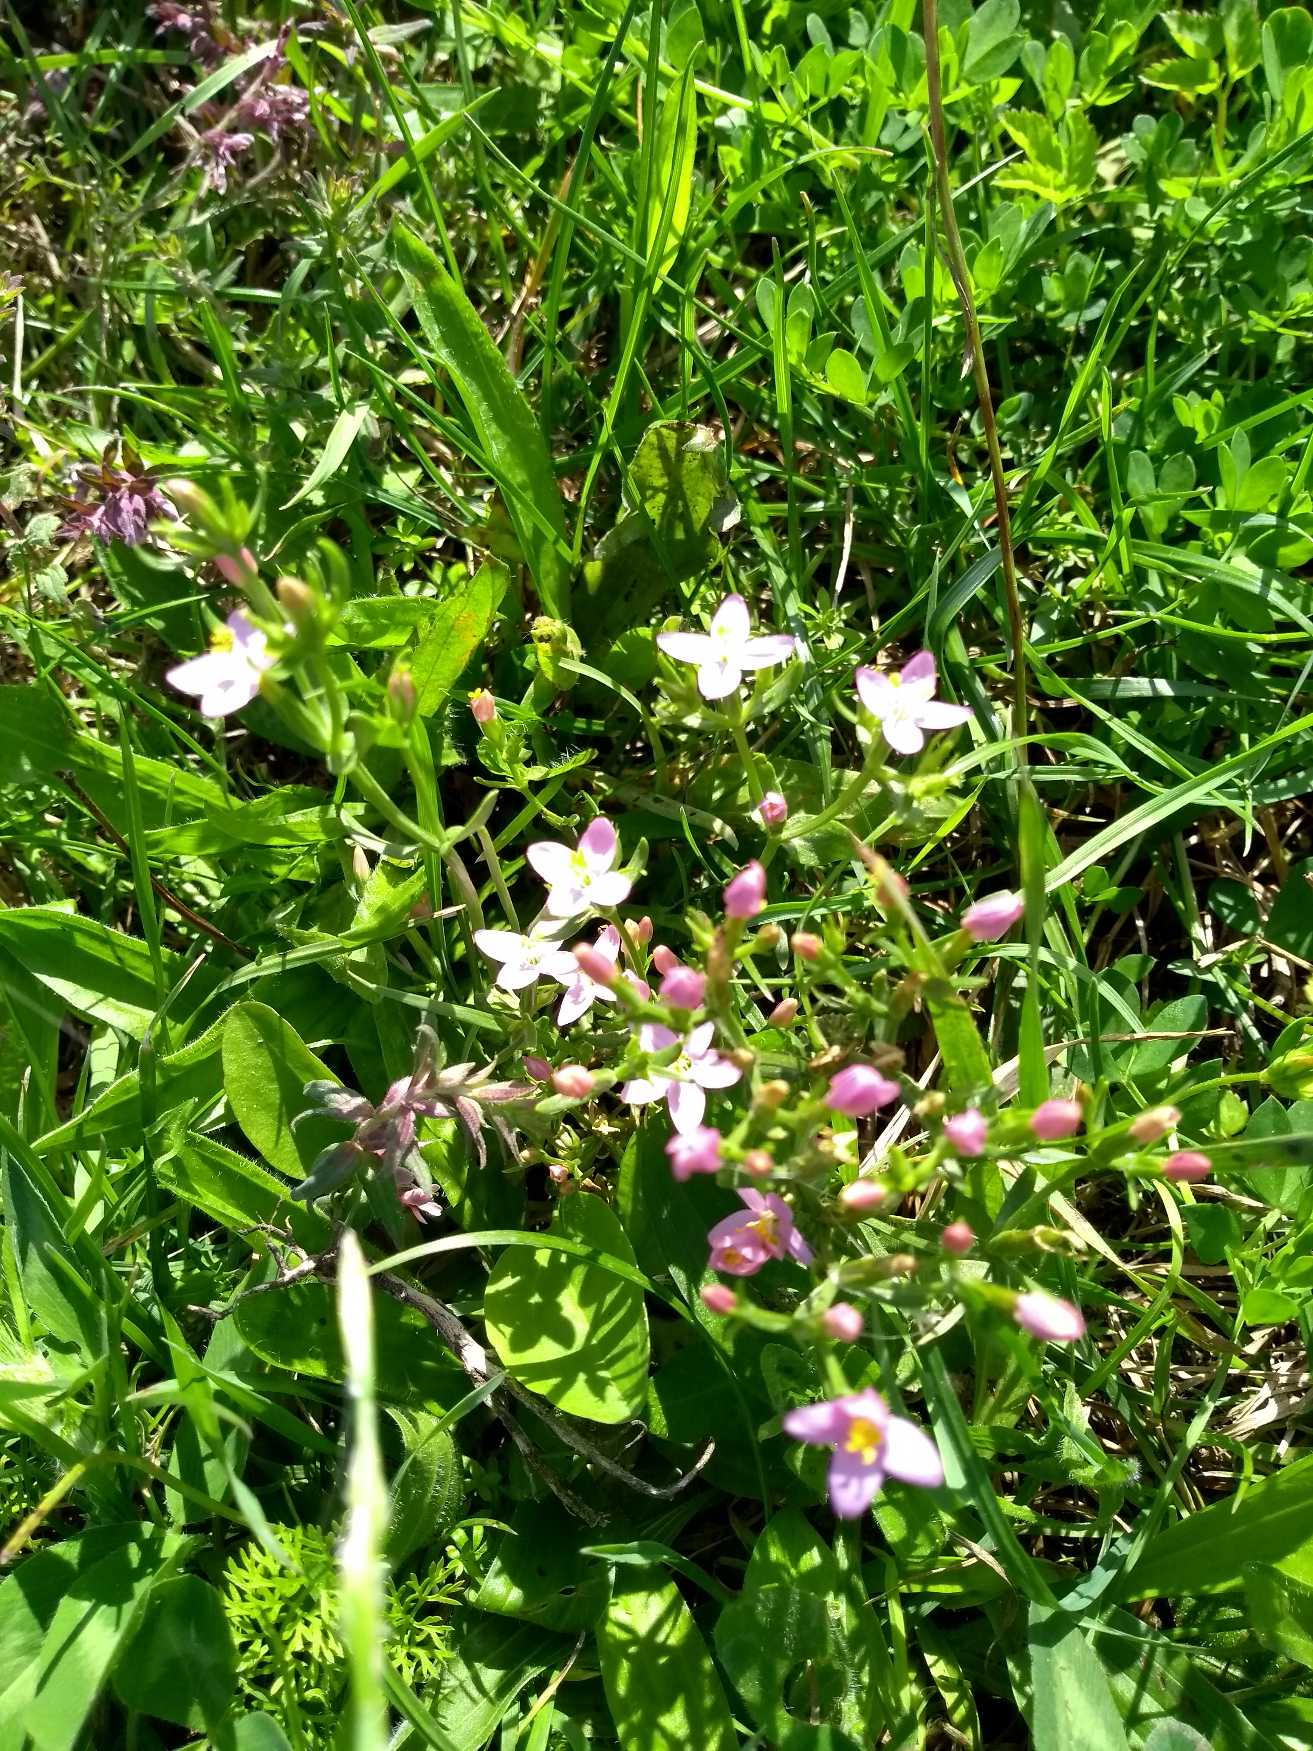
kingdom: Plantae
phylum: Tracheophyta
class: Magnoliopsida
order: Gentianales
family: Gentianaceae
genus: Centaurium
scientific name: Centaurium erythraea
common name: Mark-tusindgylden
